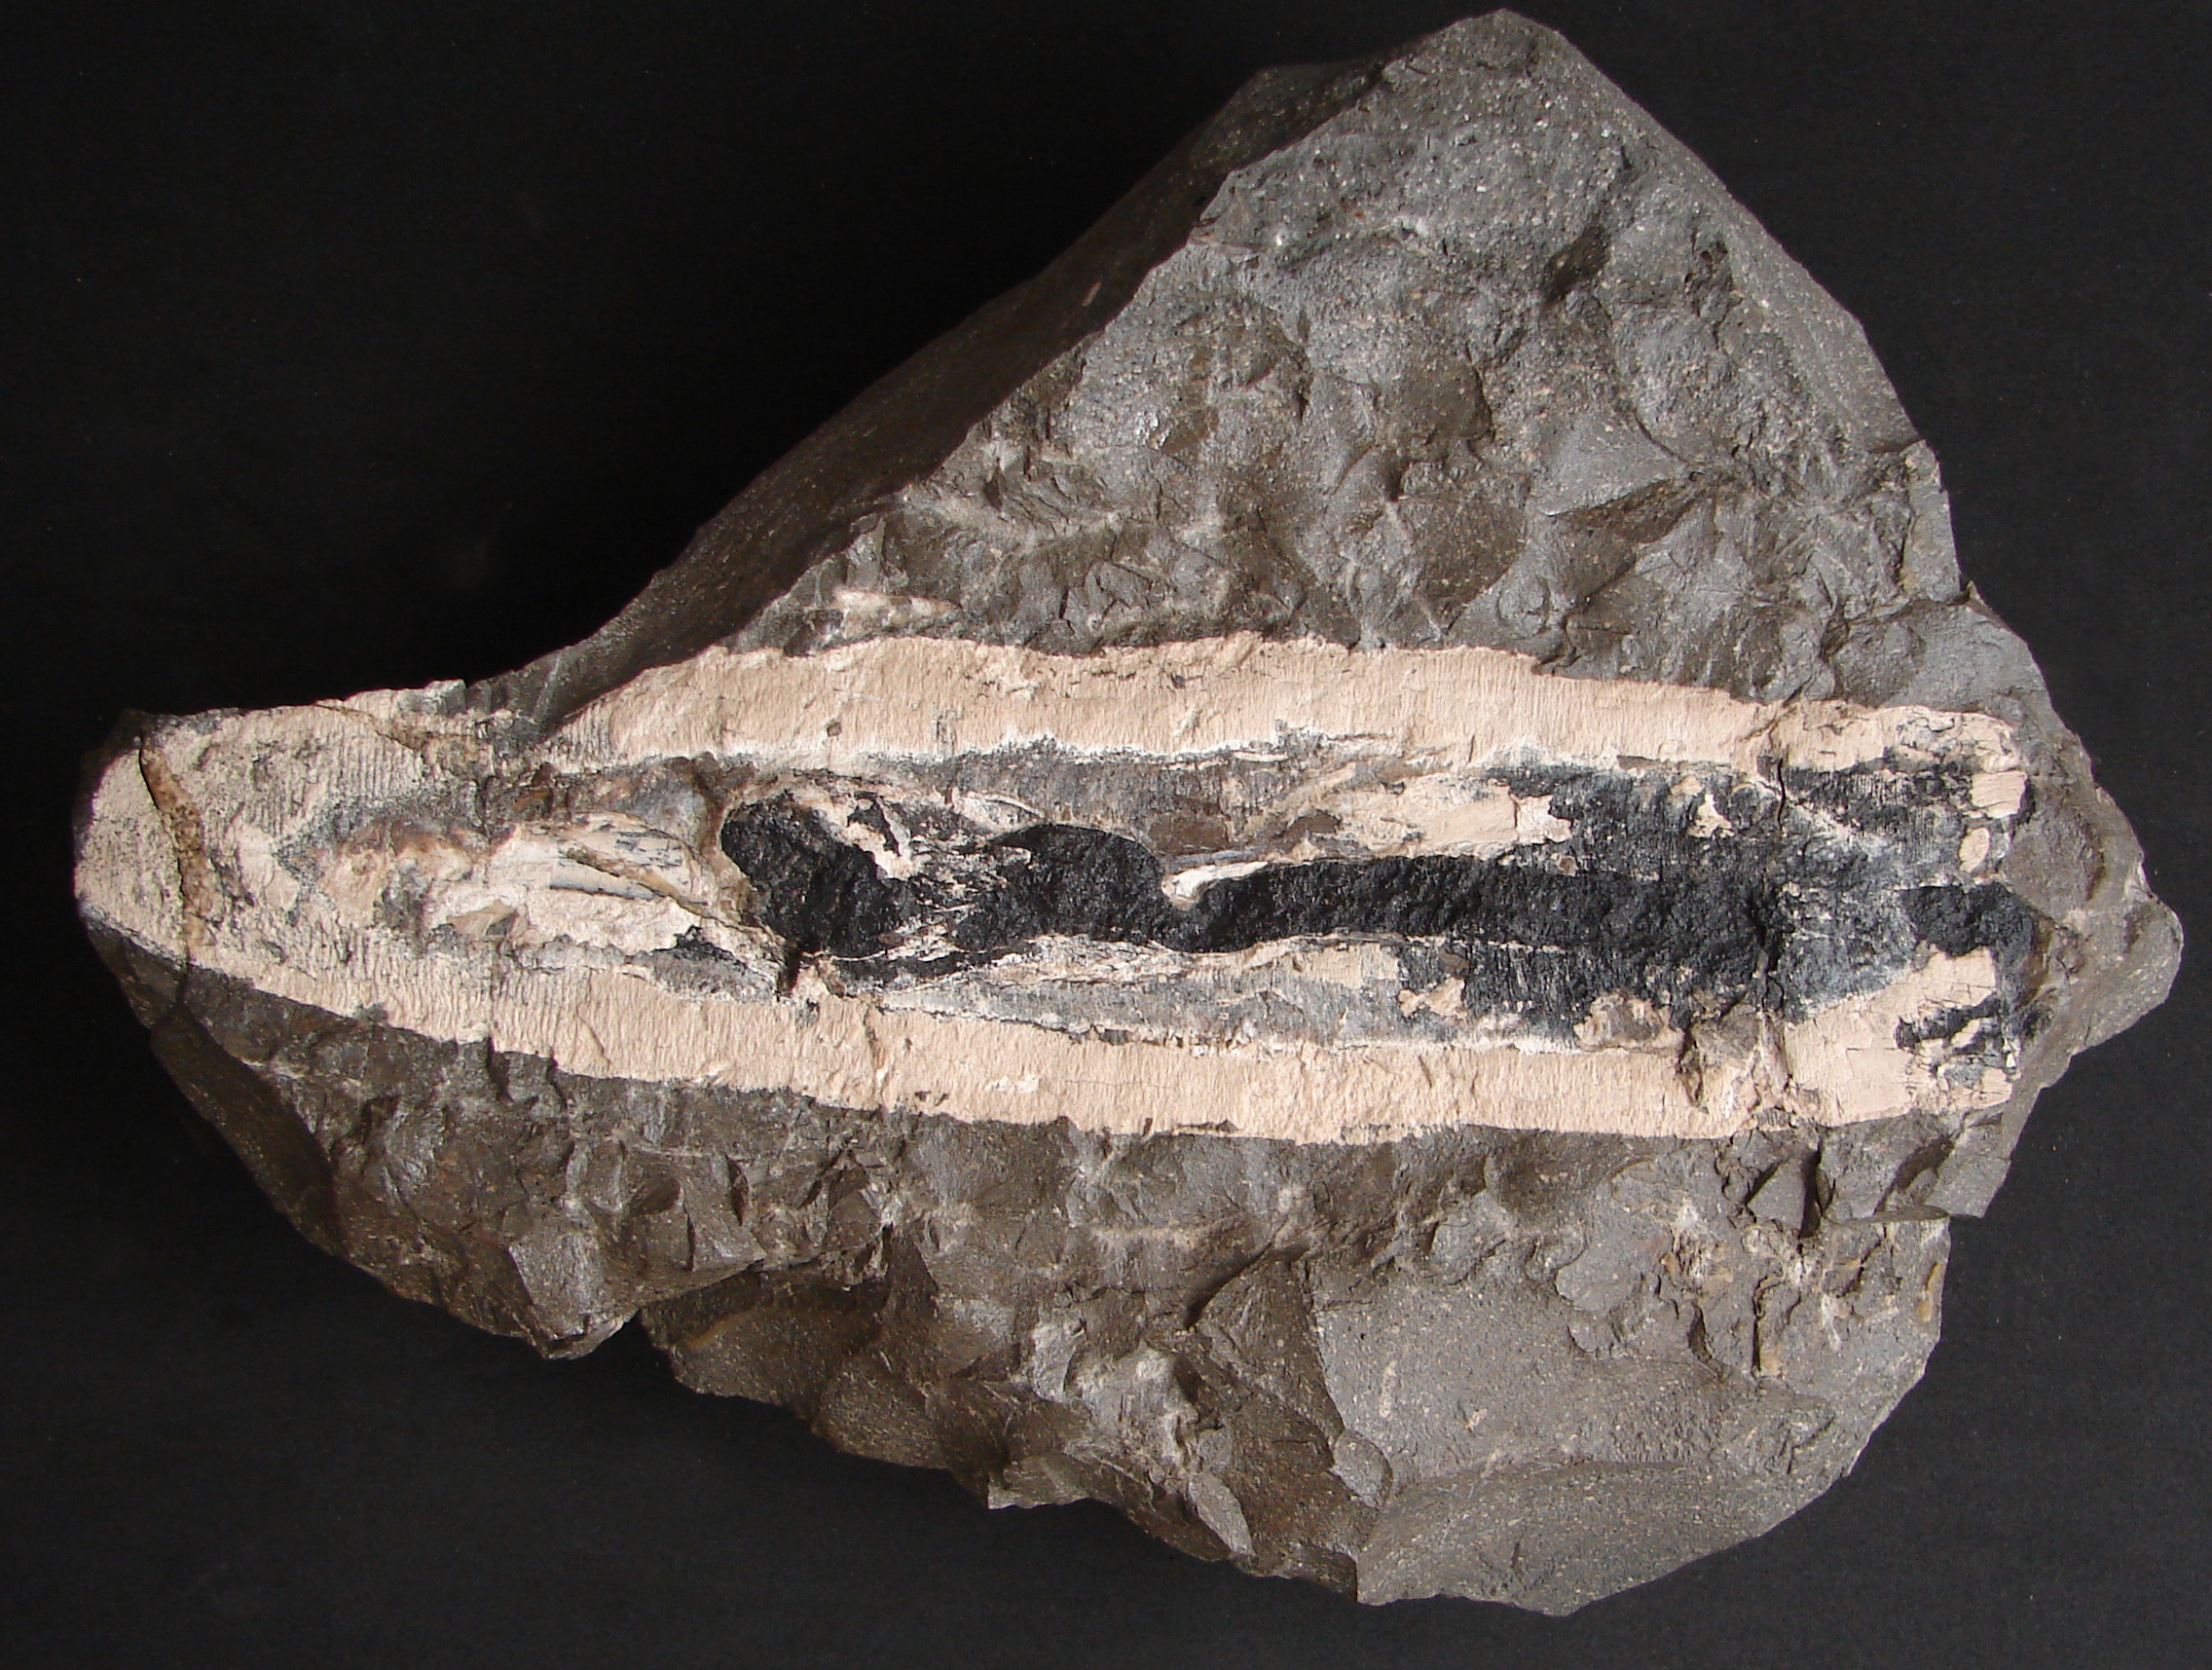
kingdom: Animalia
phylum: Mollusca
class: Cephalopoda
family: Loligosepiidae
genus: Loligosepia
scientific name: Loligosepia
